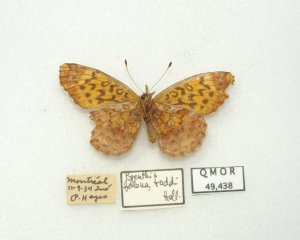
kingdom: Animalia
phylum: Arthropoda
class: Insecta
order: Lepidoptera
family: Nymphalidae
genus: Clossiana
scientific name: Clossiana toddi
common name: Meadow Fritillary
